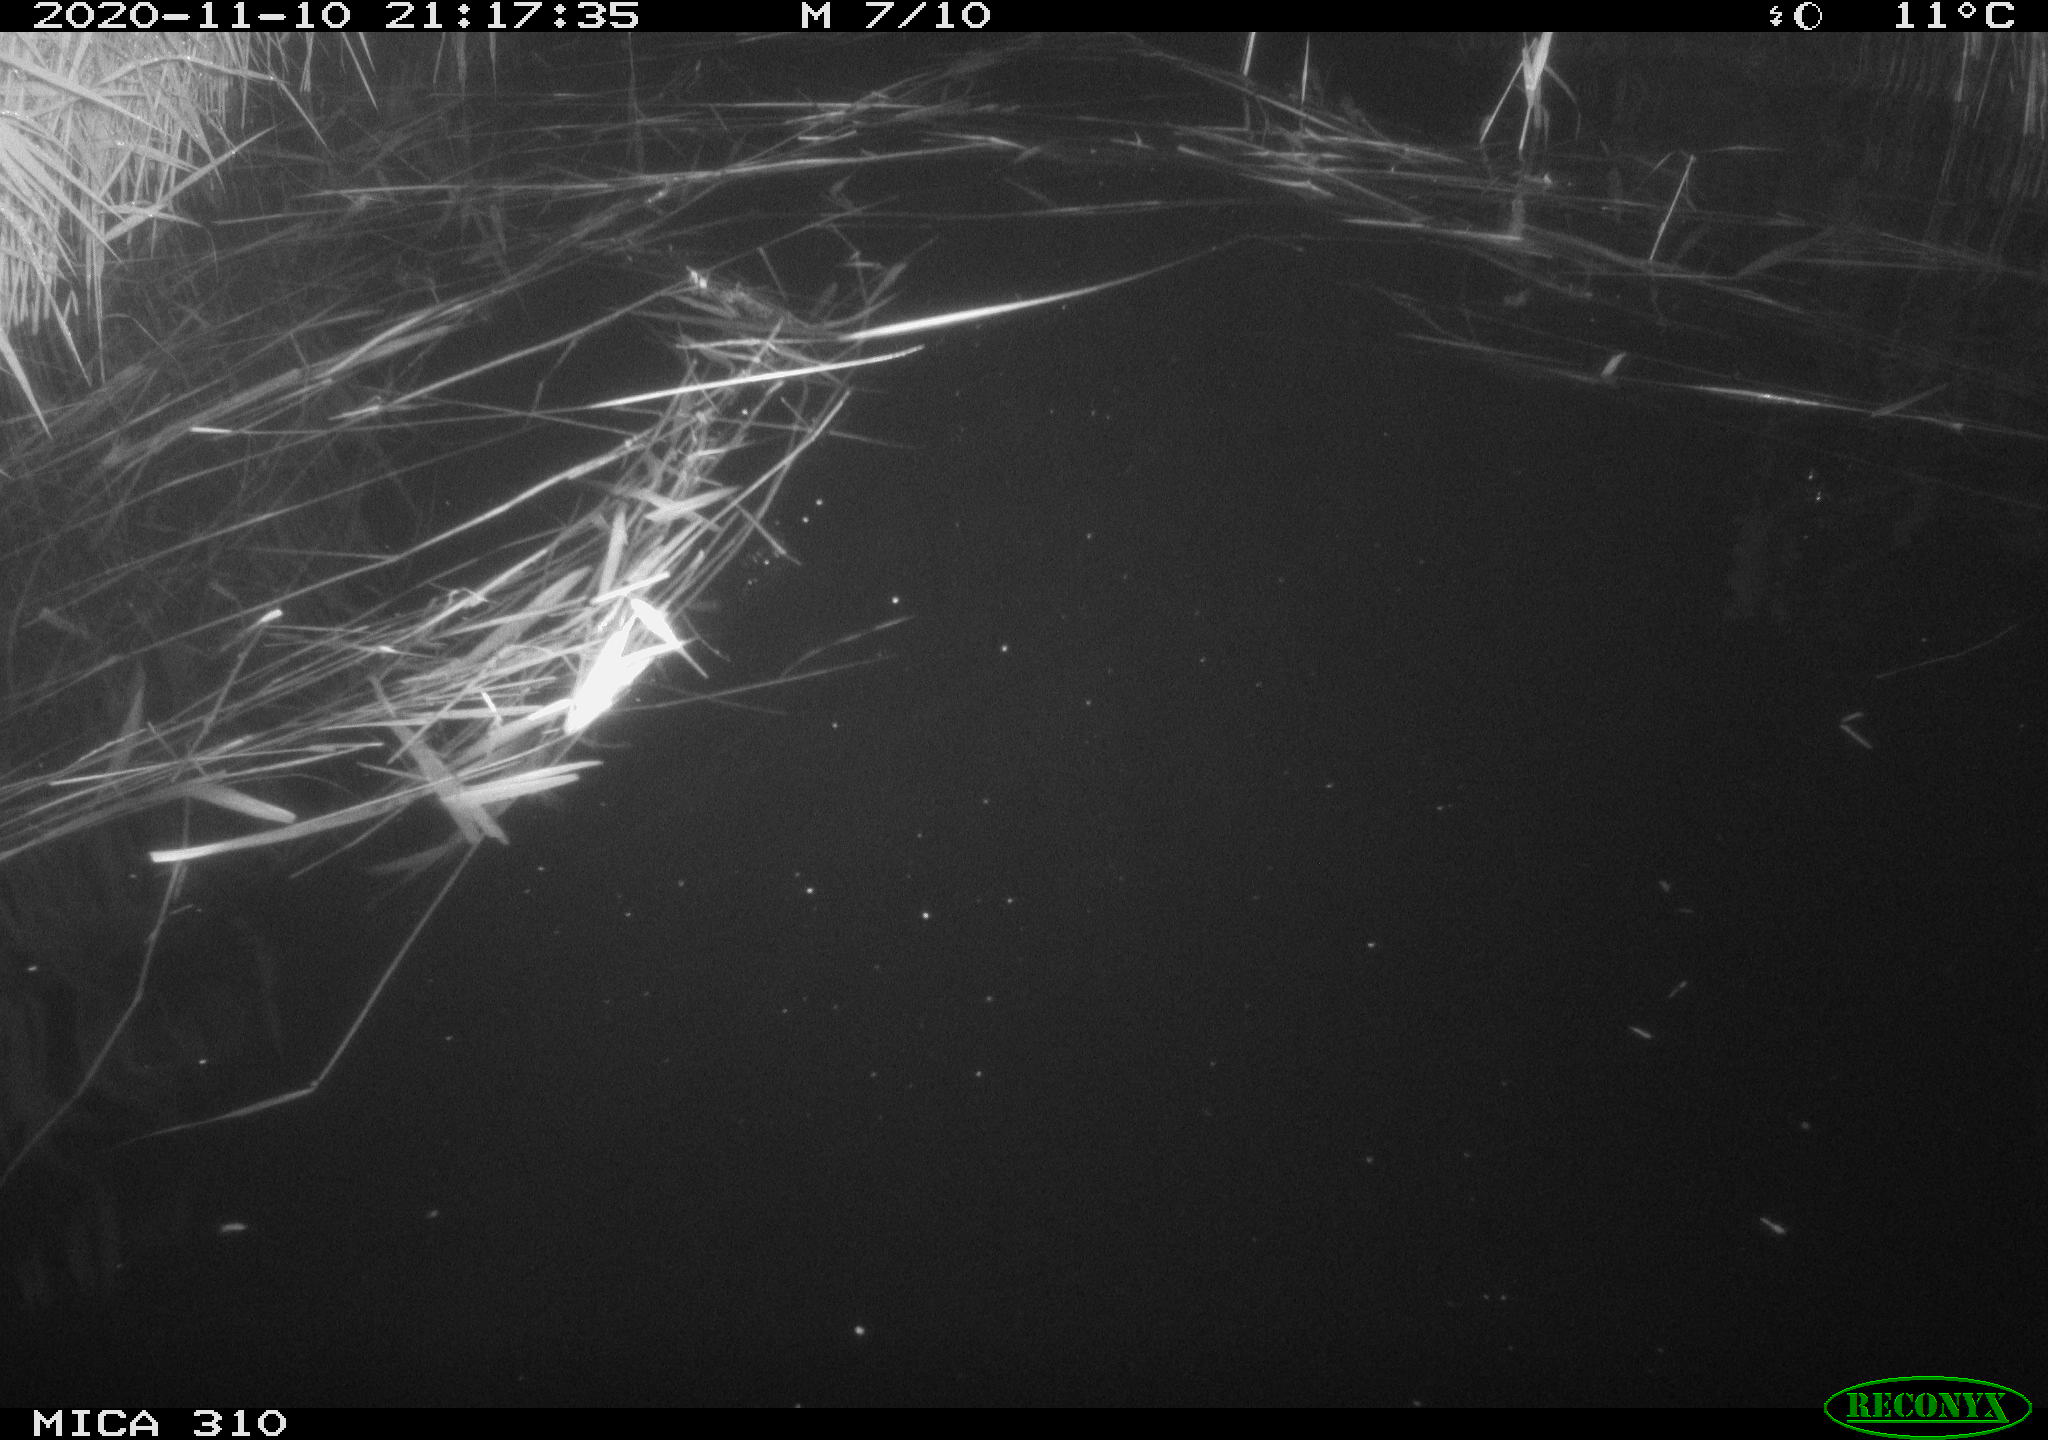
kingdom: Animalia
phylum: Chordata
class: Mammalia
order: Rodentia
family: Cricetidae
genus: Ondatra
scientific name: Ondatra zibethicus
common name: Muskrat
